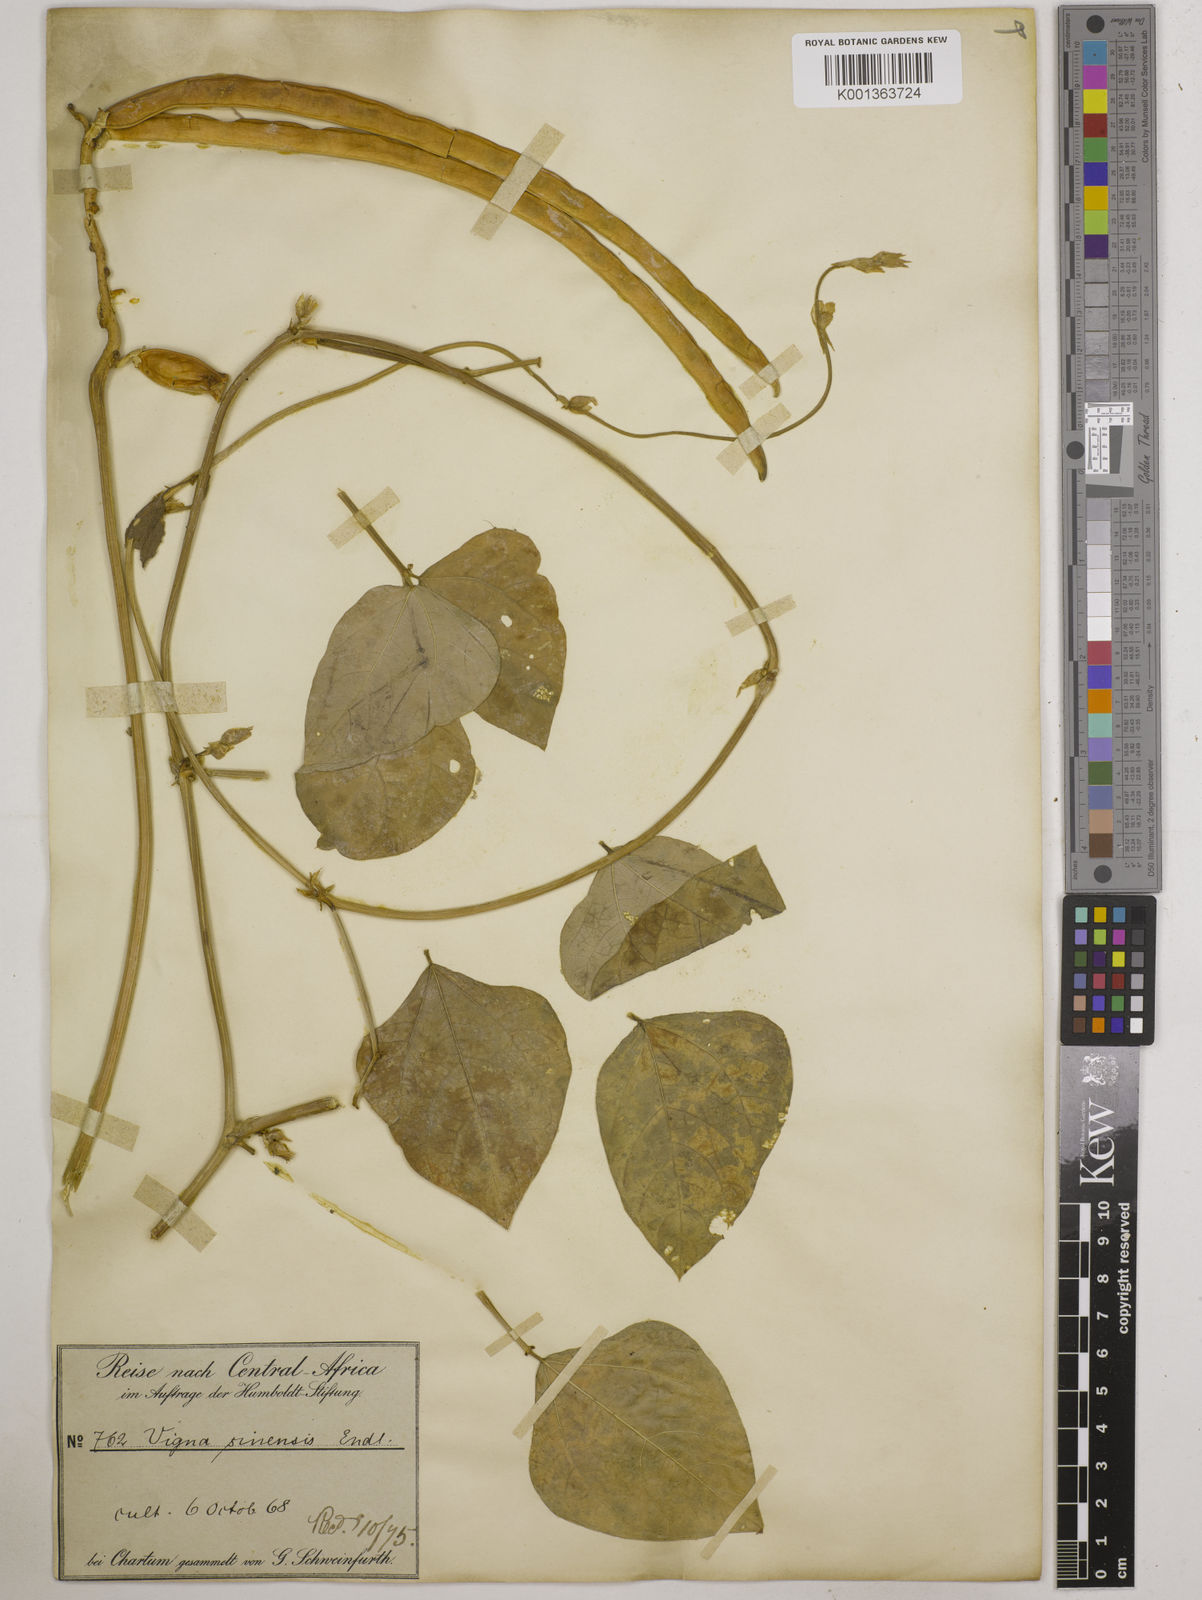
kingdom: Plantae
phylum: Tracheophyta
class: Magnoliopsida
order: Fabales
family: Fabaceae
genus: Vigna
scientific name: Vigna unguiculata
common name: Cowpea
